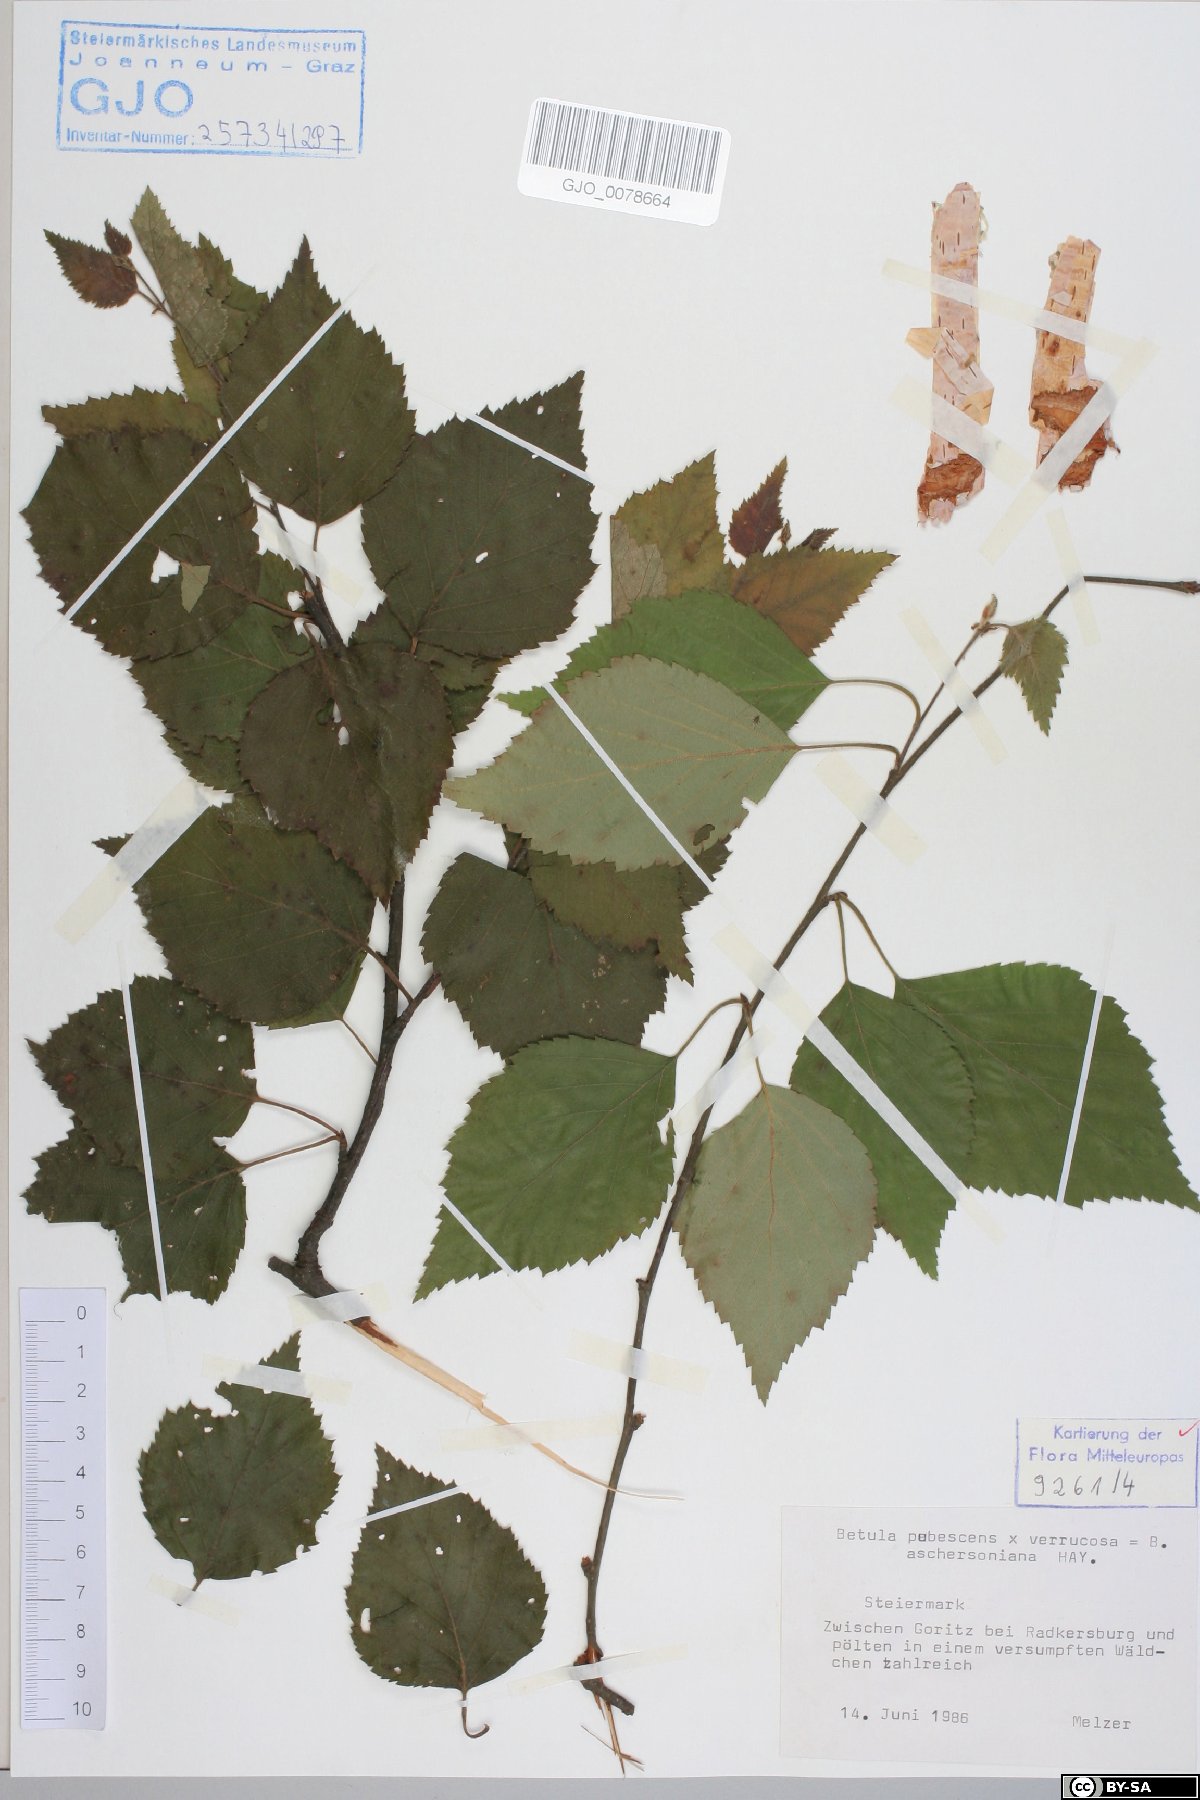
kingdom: Plantae
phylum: Tracheophyta
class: Magnoliopsida
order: Fagales
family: Betulaceae
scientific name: Betulaceae
